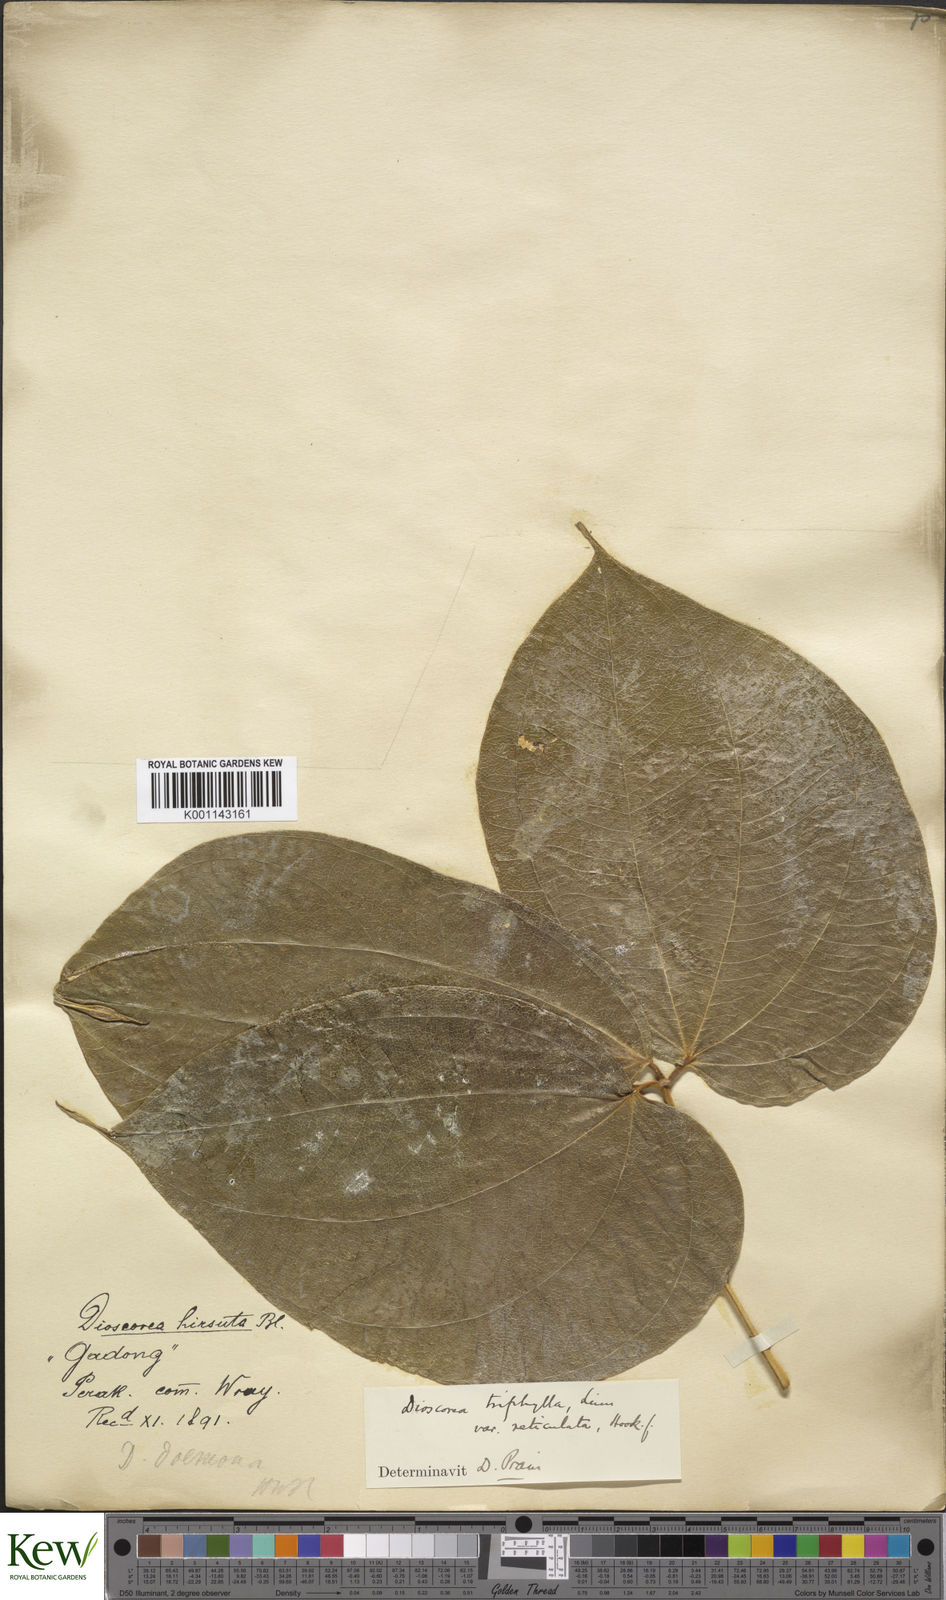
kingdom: Plantae
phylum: Tracheophyta
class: Liliopsida
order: Dioscoreales
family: Dioscoreaceae
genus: Dioscorea
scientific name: Dioscorea hispida
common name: Asiatic bitter yam
